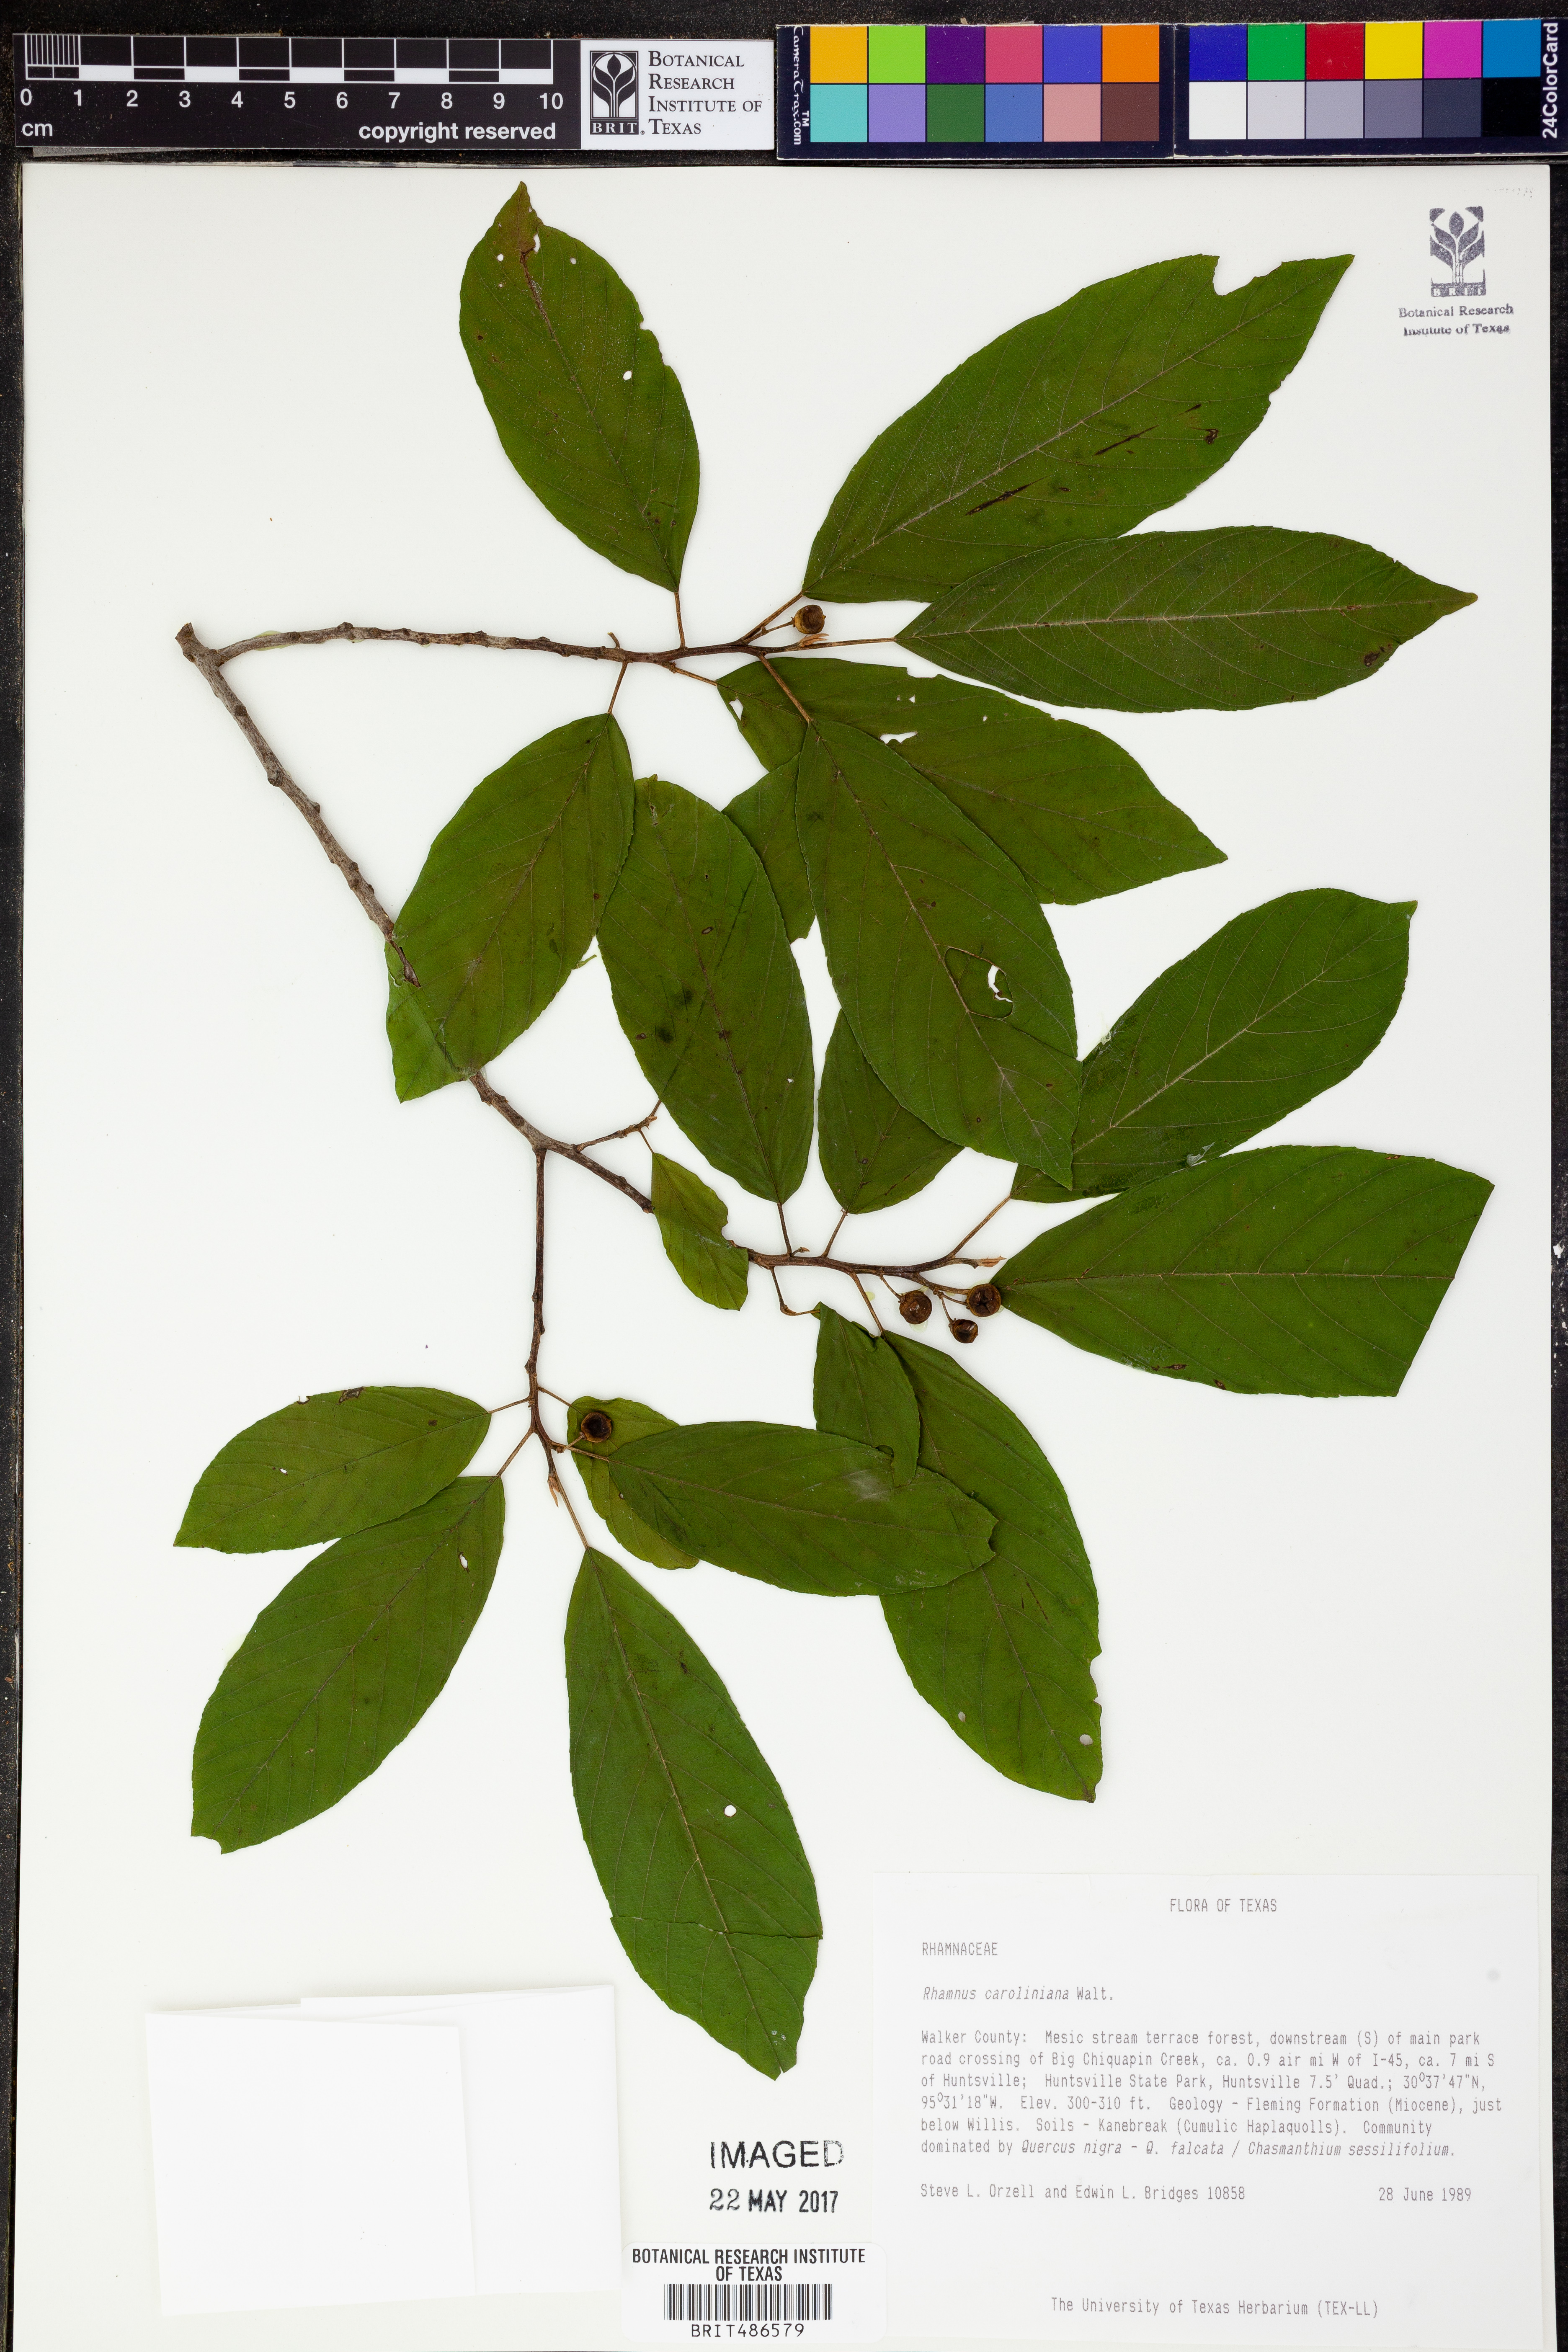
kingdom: Plantae
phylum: Tracheophyta
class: Magnoliopsida
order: Rosales
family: Rhamnaceae
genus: Frangula
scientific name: Frangula caroliniana
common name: Carolina buckthorn
